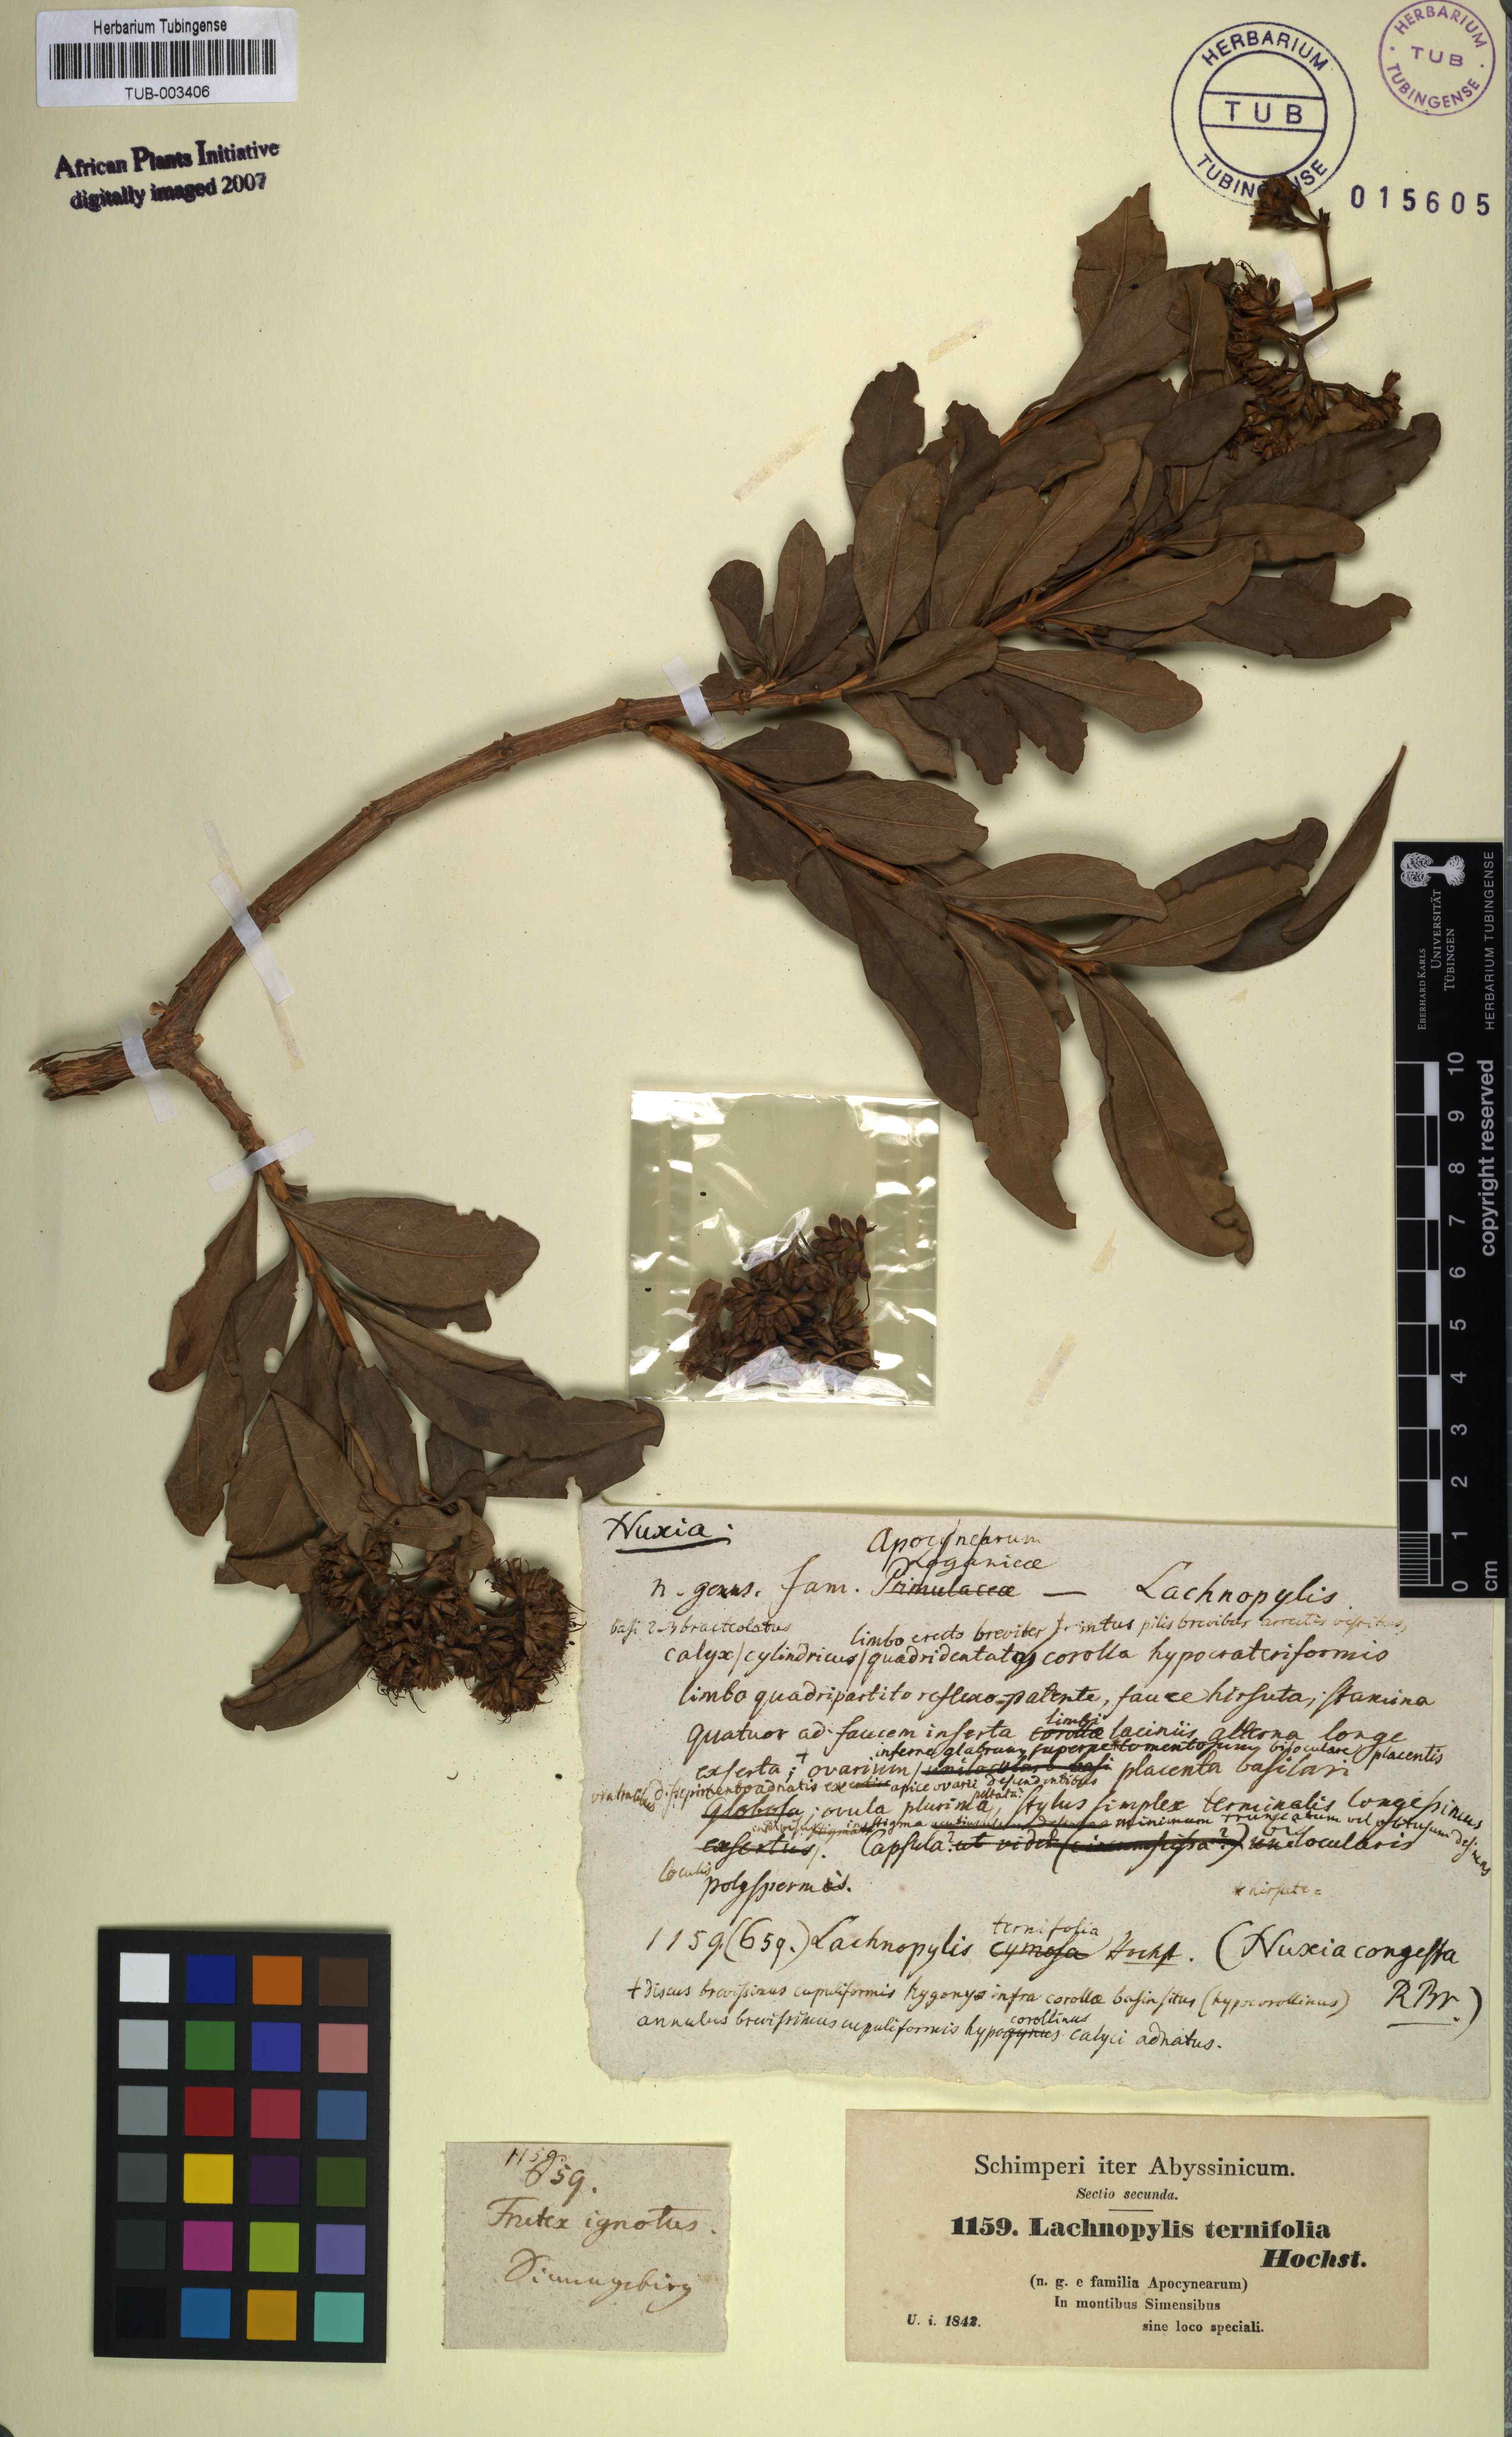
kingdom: Plantae
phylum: Tracheophyta
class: Magnoliopsida
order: Lamiales
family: Stilbaceae
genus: Nuxia
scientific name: Nuxia congesta
